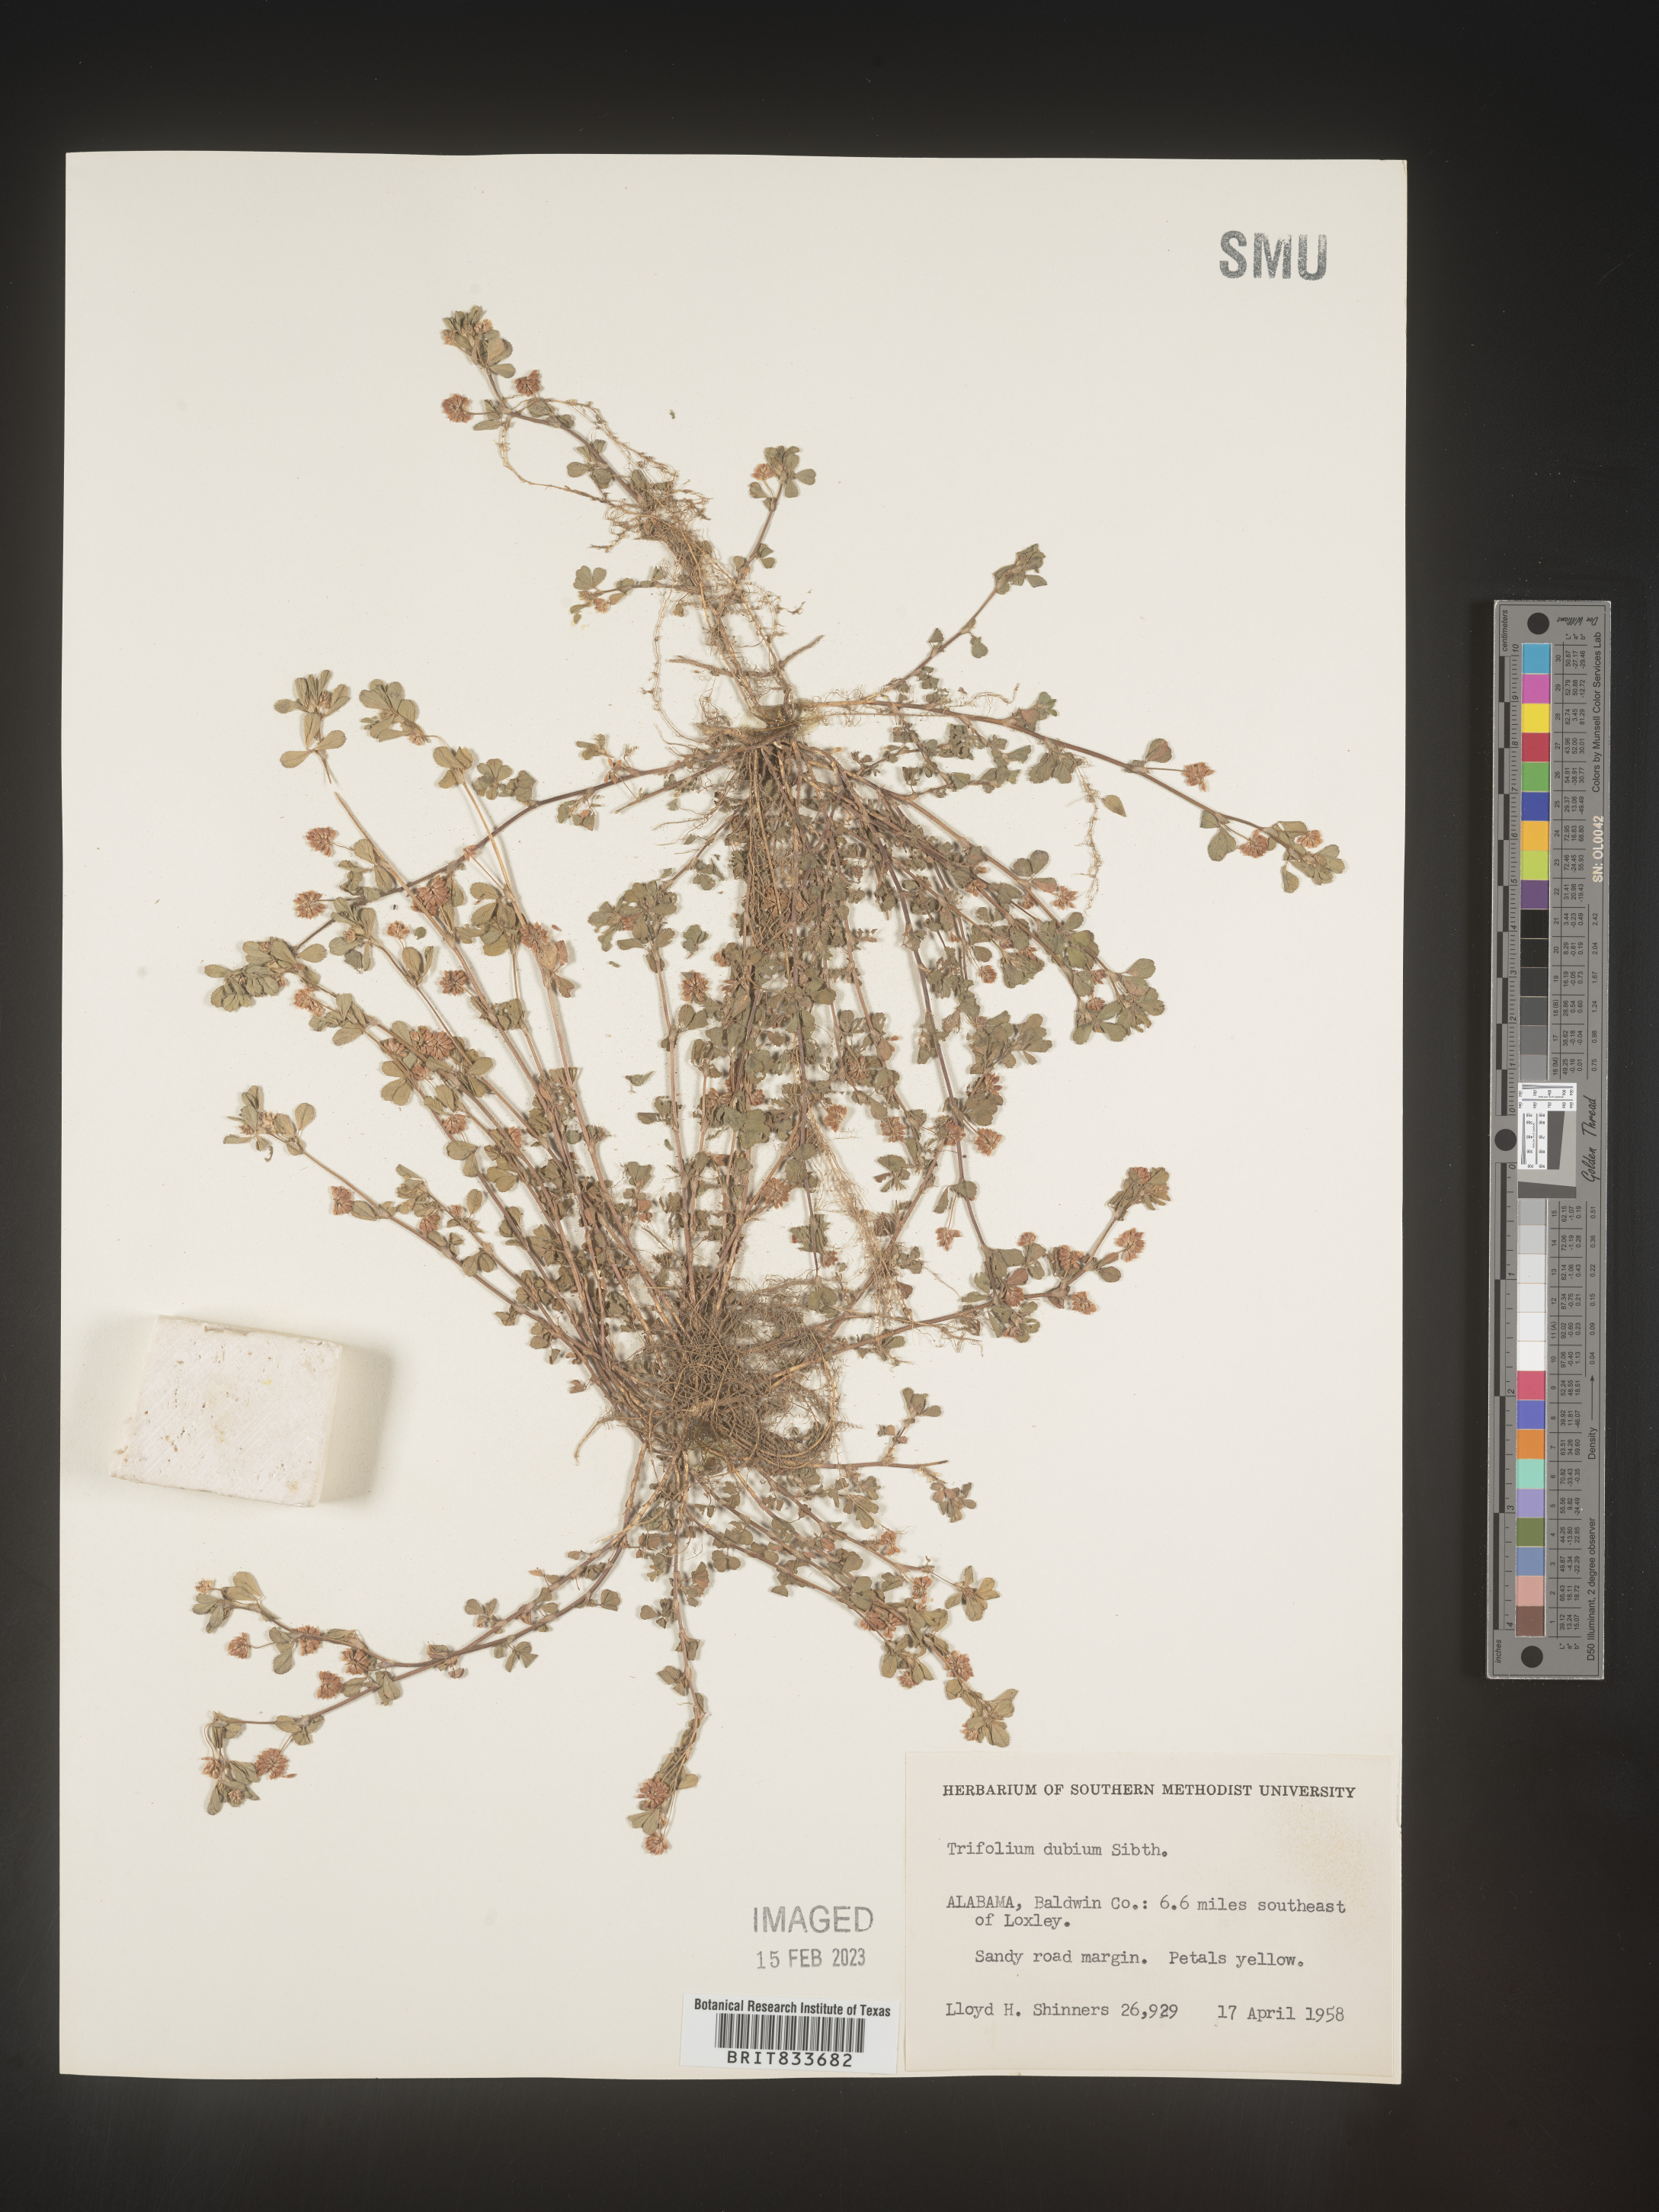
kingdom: Plantae
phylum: Tracheophyta
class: Magnoliopsida
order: Fabales
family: Fabaceae
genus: Trifolium
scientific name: Trifolium dubium
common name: Suckling clover
